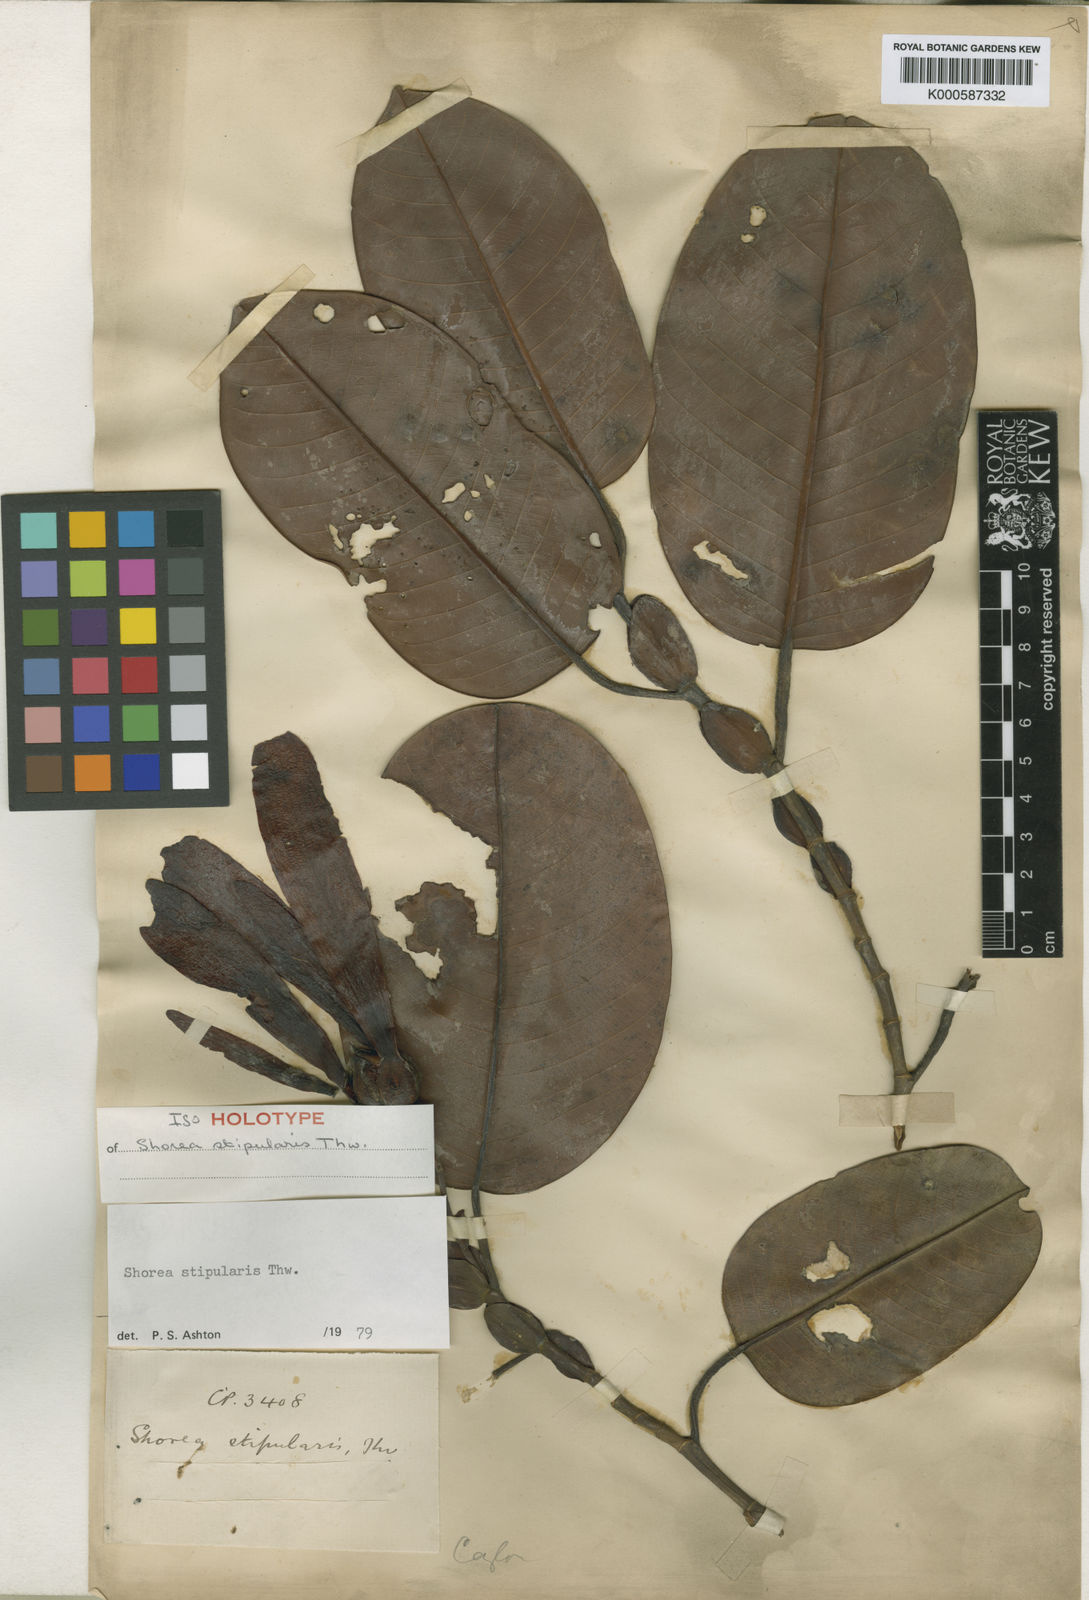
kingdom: Plantae
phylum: Tracheophyta
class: Magnoliopsida
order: Malvales
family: Dipterocarpaceae
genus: Anthoshorea
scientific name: Anthoshorea stipularis
